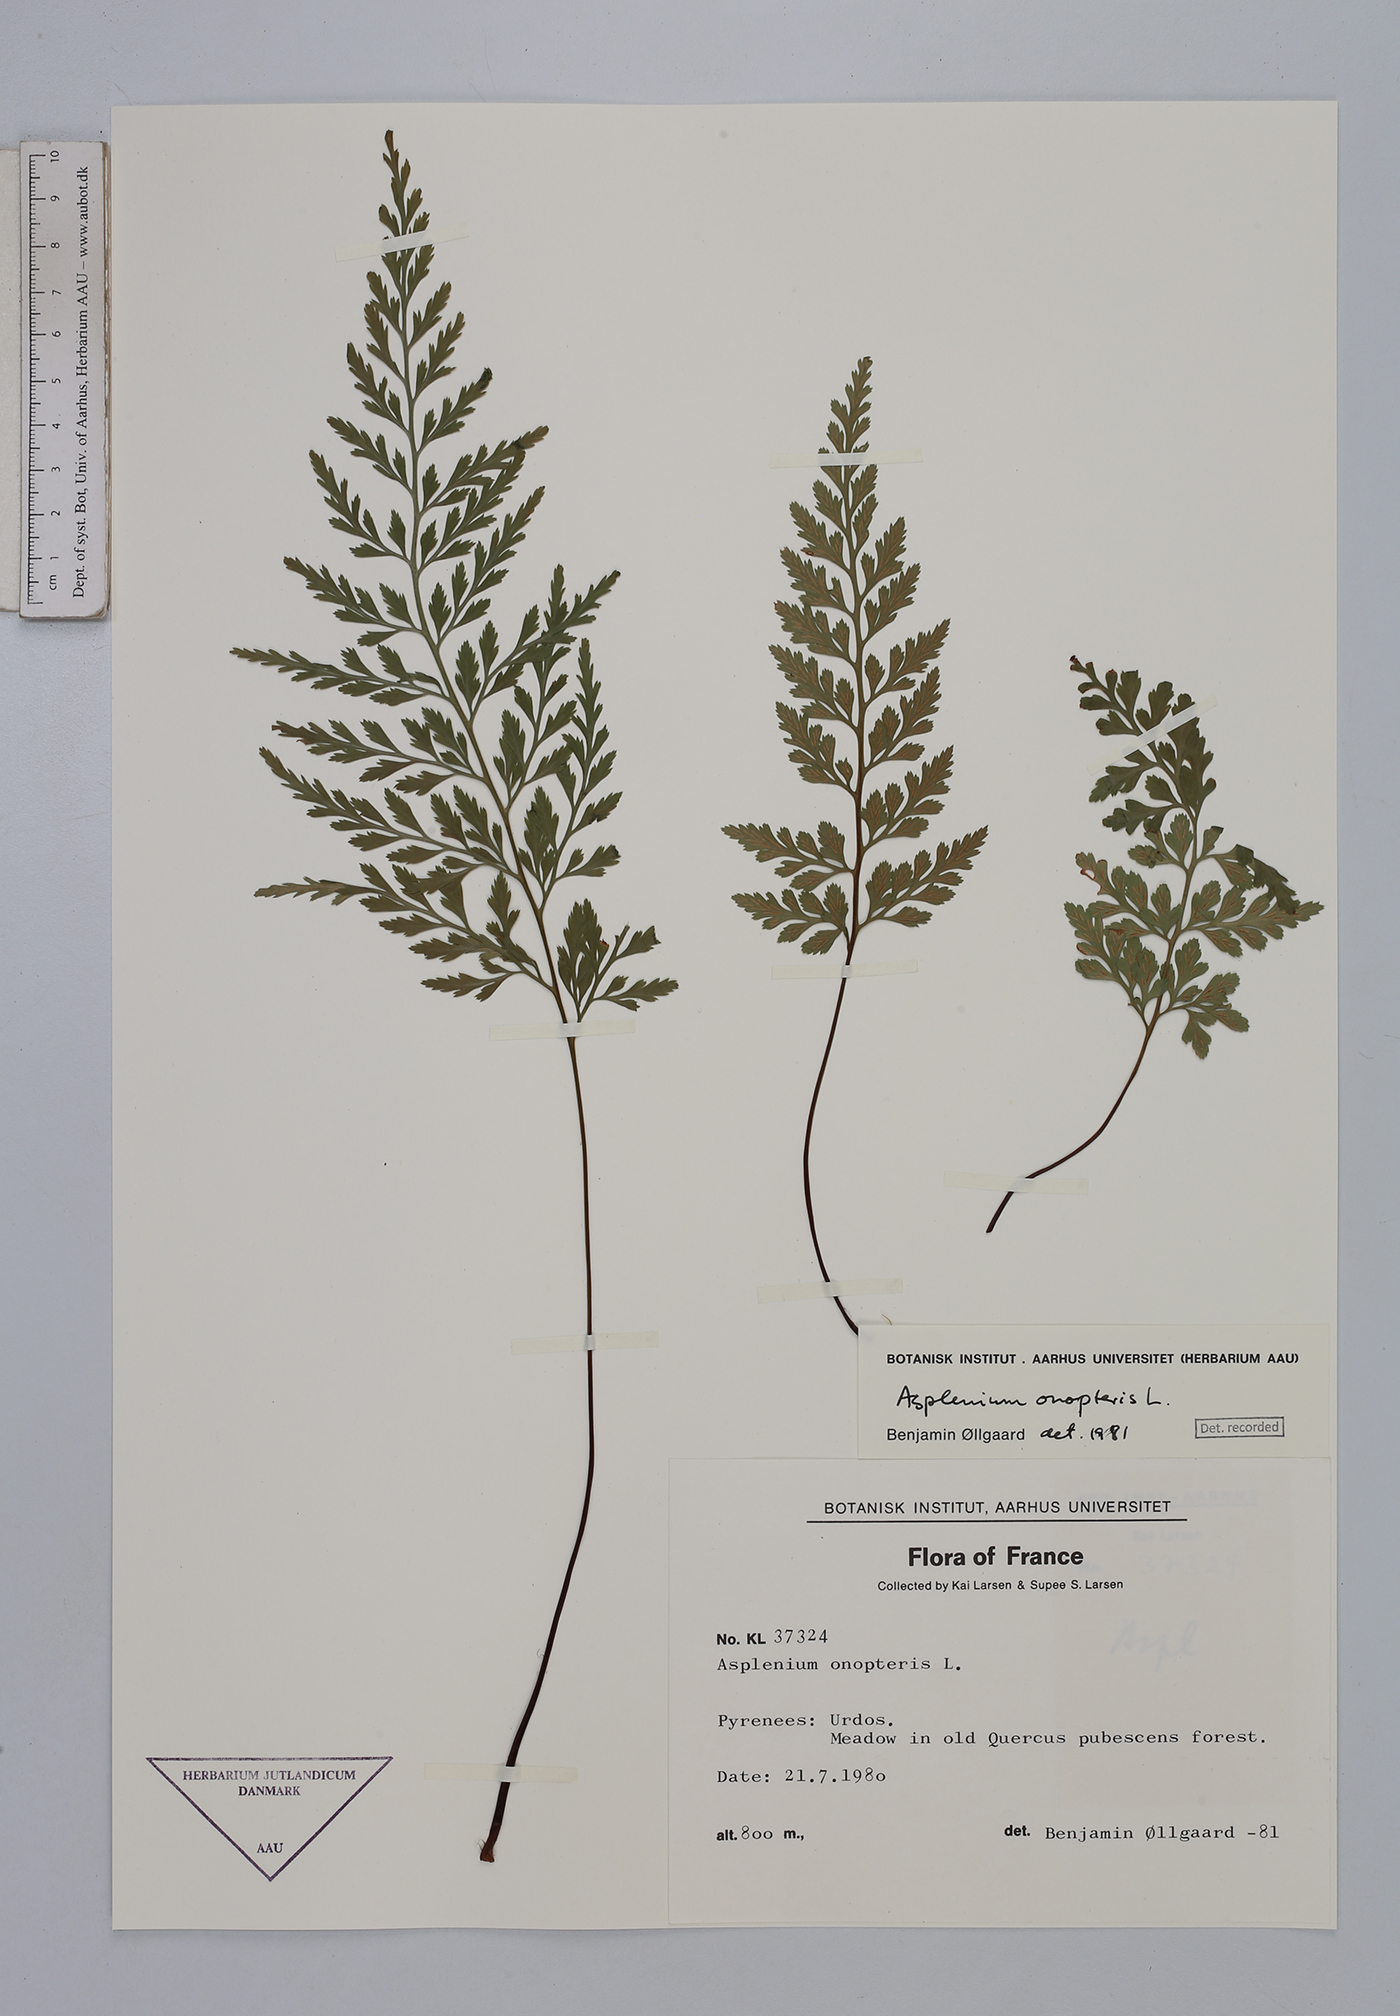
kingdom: Plantae
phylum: Tracheophyta
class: Polypodiopsida
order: Polypodiales
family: Aspleniaceae
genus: Asplenium
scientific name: Asplenium onopteris
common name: Irish spleenwort
